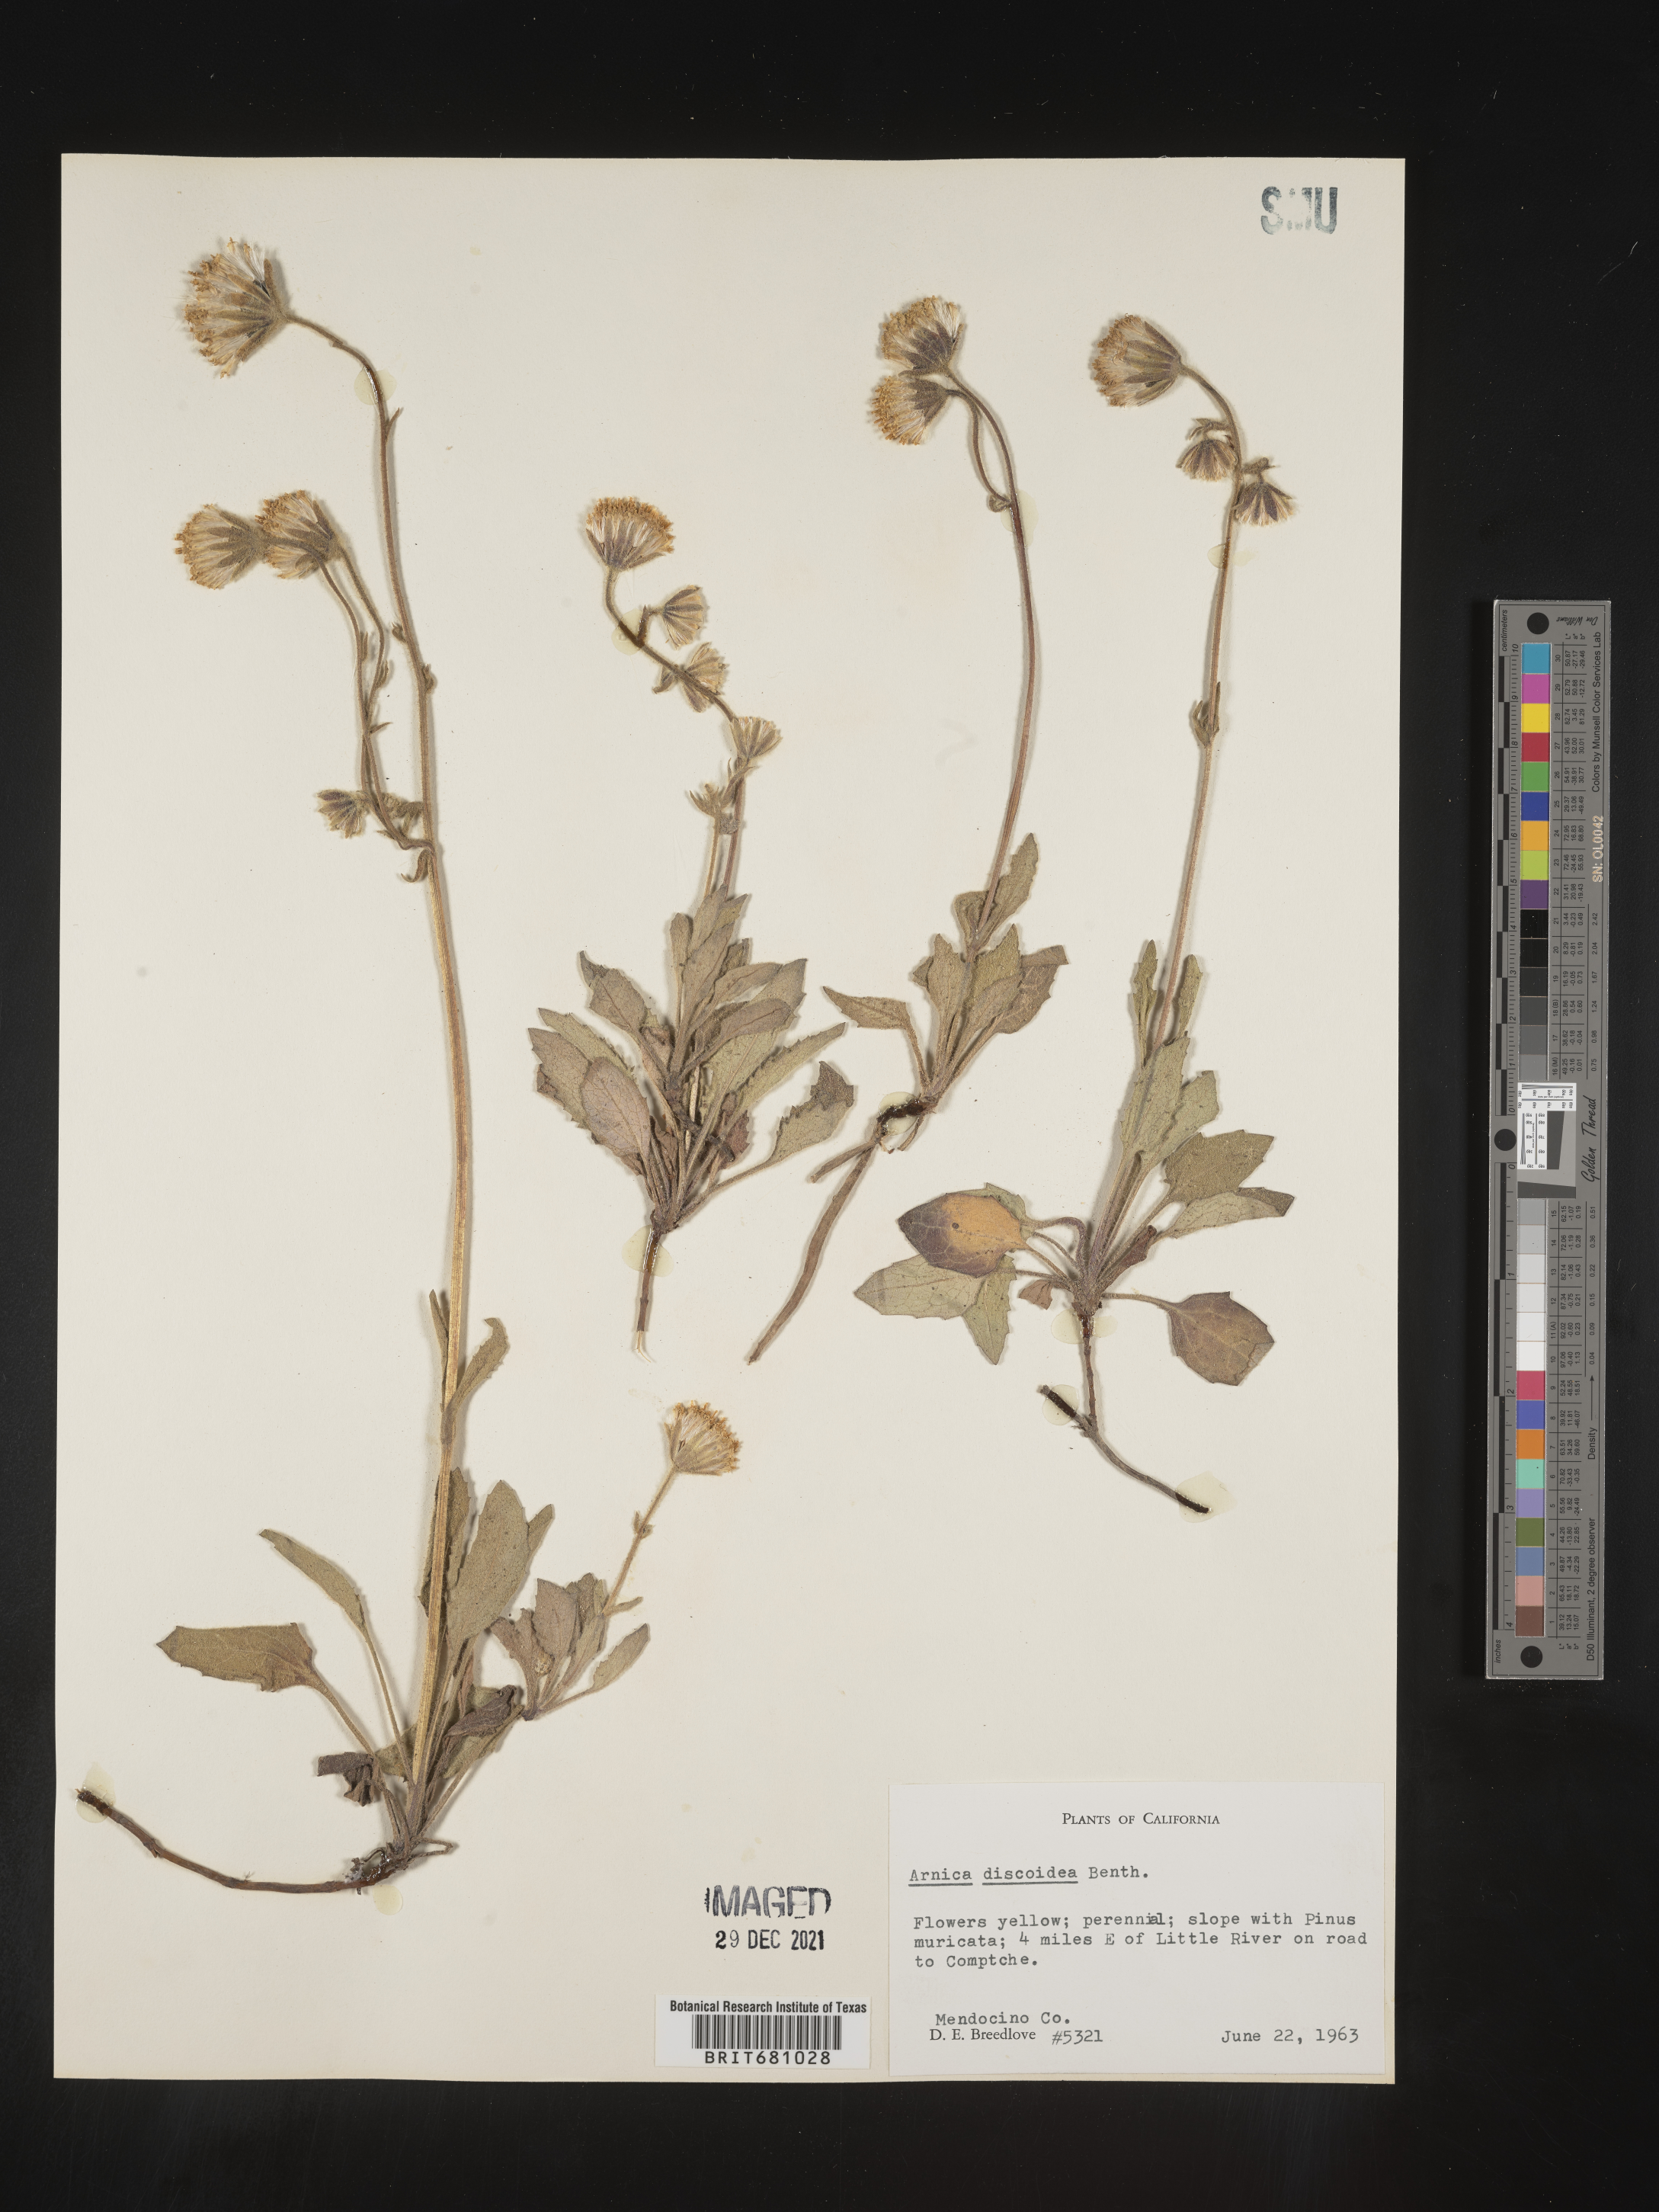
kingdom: Plantae
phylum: Tracheophyta
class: Magnoliopsida
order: Asterales
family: Asteraceae
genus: Arnica
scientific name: Arnica
